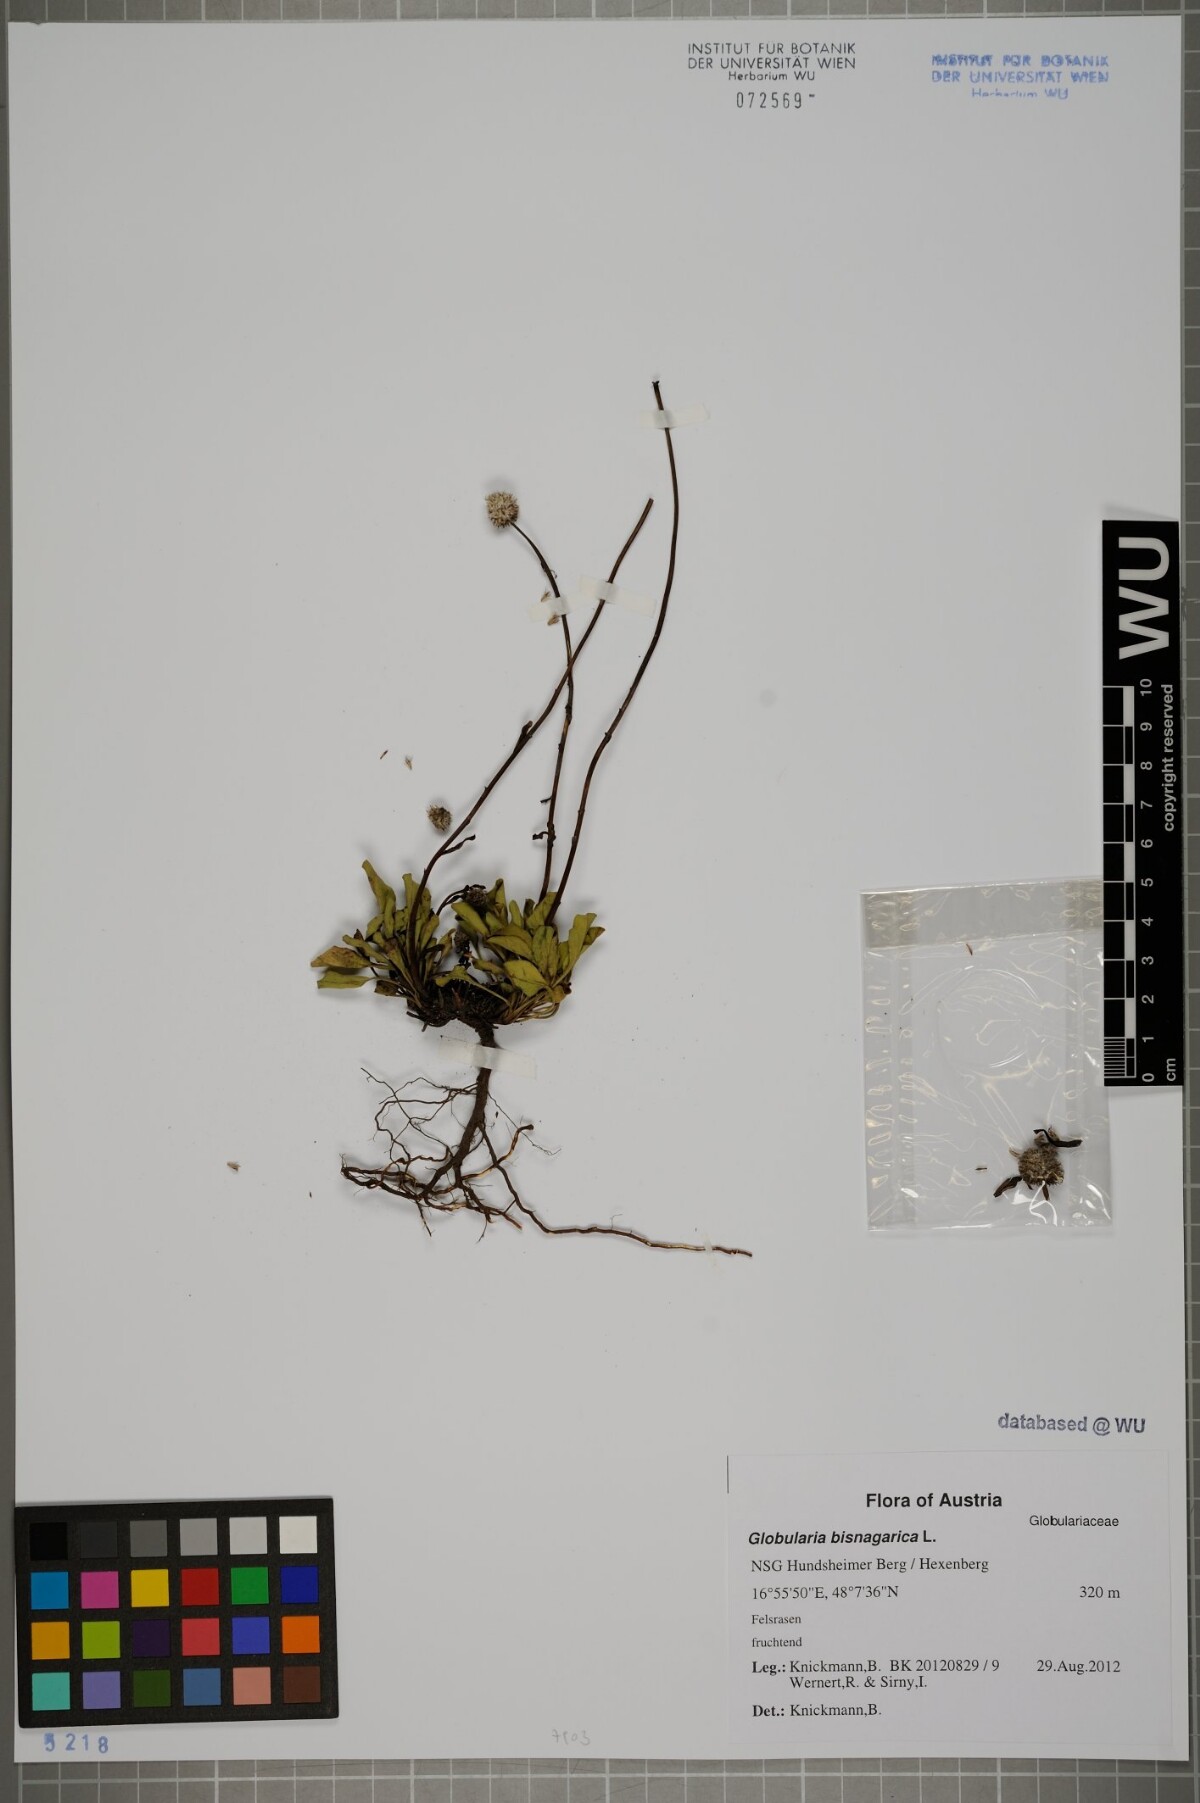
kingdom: Plantae
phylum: Tracheophyta
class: Magnoliopsida
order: Lamiales
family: Plantaginaceae
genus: Globularia
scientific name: Globularia bisnagarica
